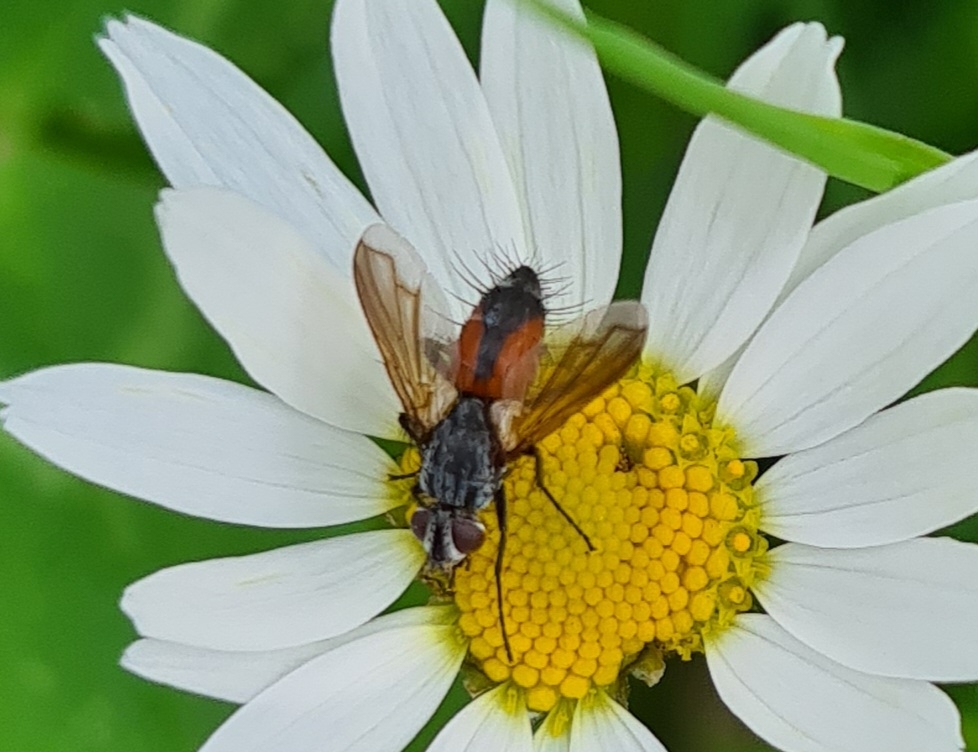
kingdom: Animalia
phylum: Arthropoda
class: Insecta
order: Diptera
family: Tachinidae
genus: Eriothrix
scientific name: Eriothrix rufomaculatus
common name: Rød snylteflue
